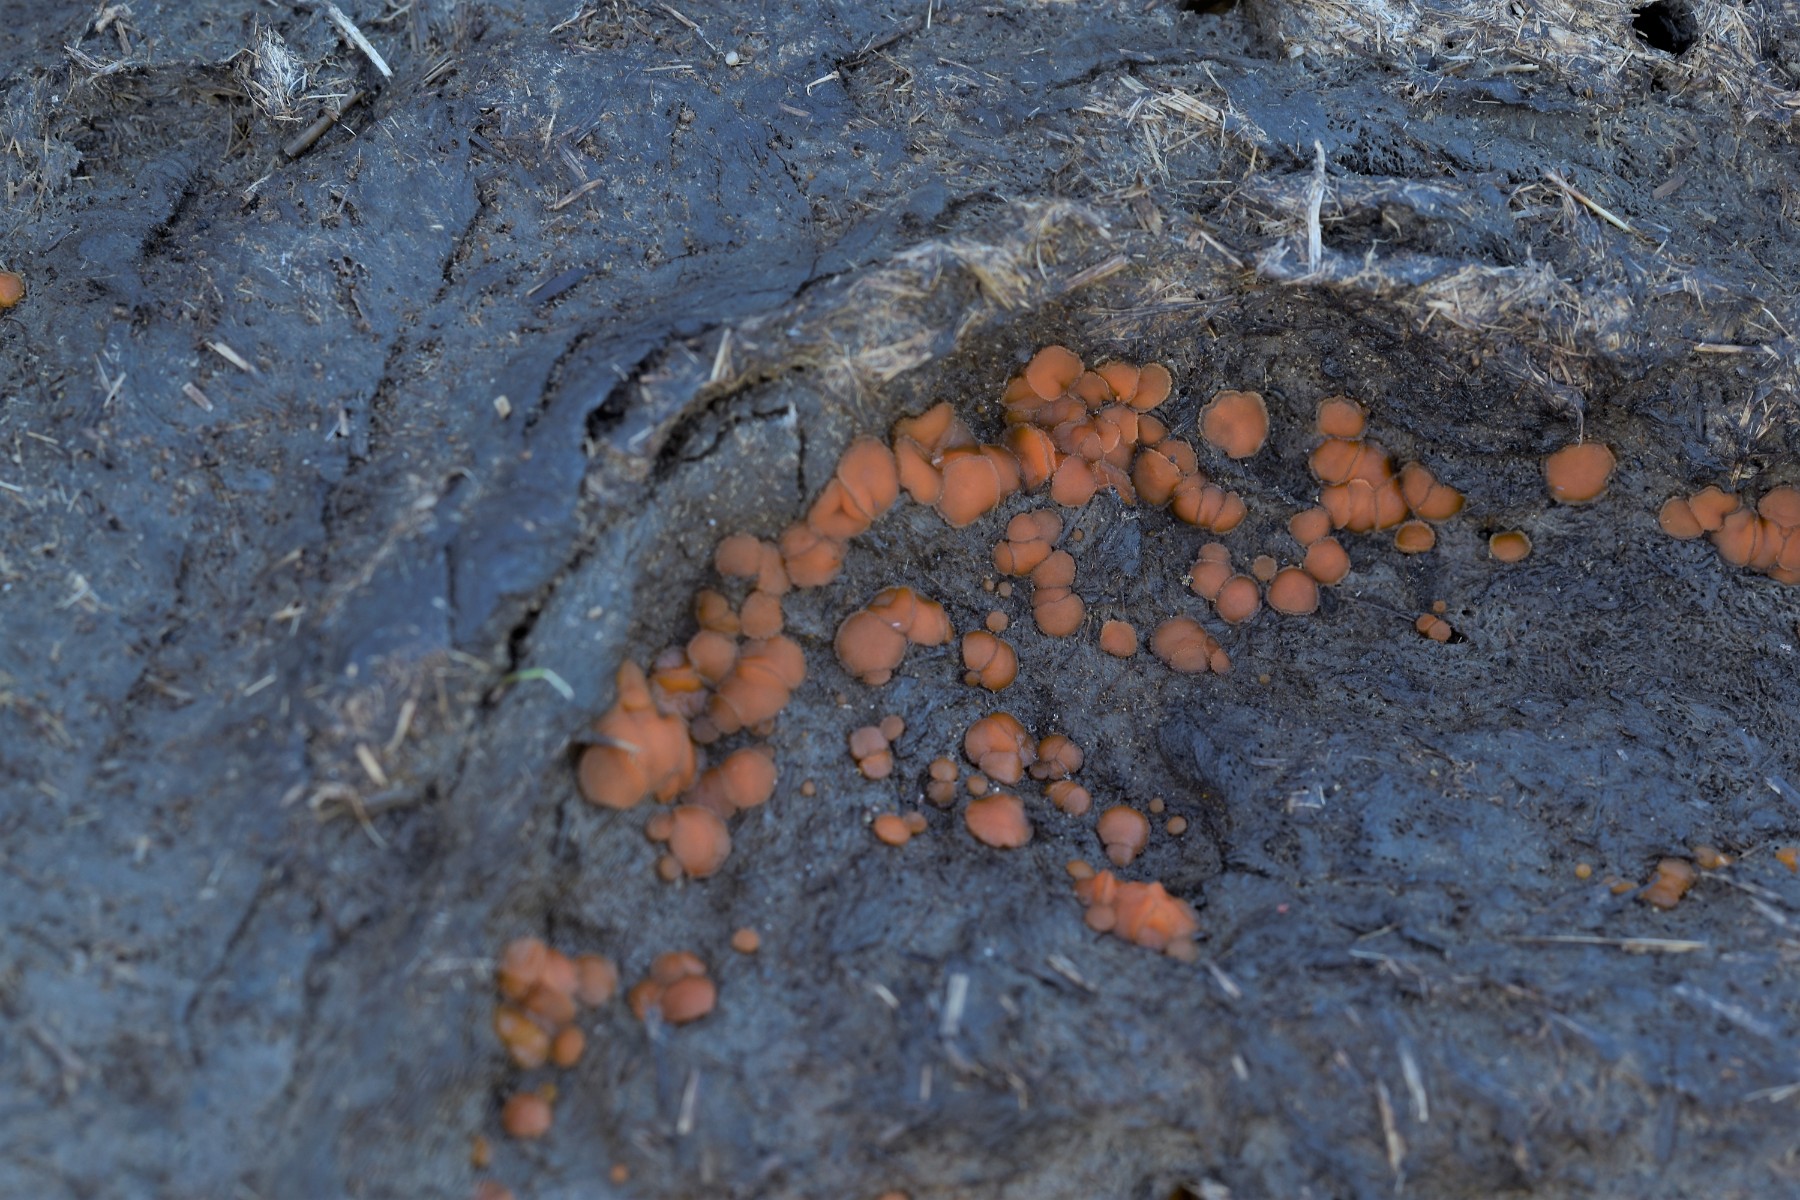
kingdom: Fungi
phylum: Ascomycota
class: Pezizomycetes
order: Pezizales
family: Pyronemataceae
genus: Cheilymenia
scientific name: Cheilymenia granulata
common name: møgbæger
